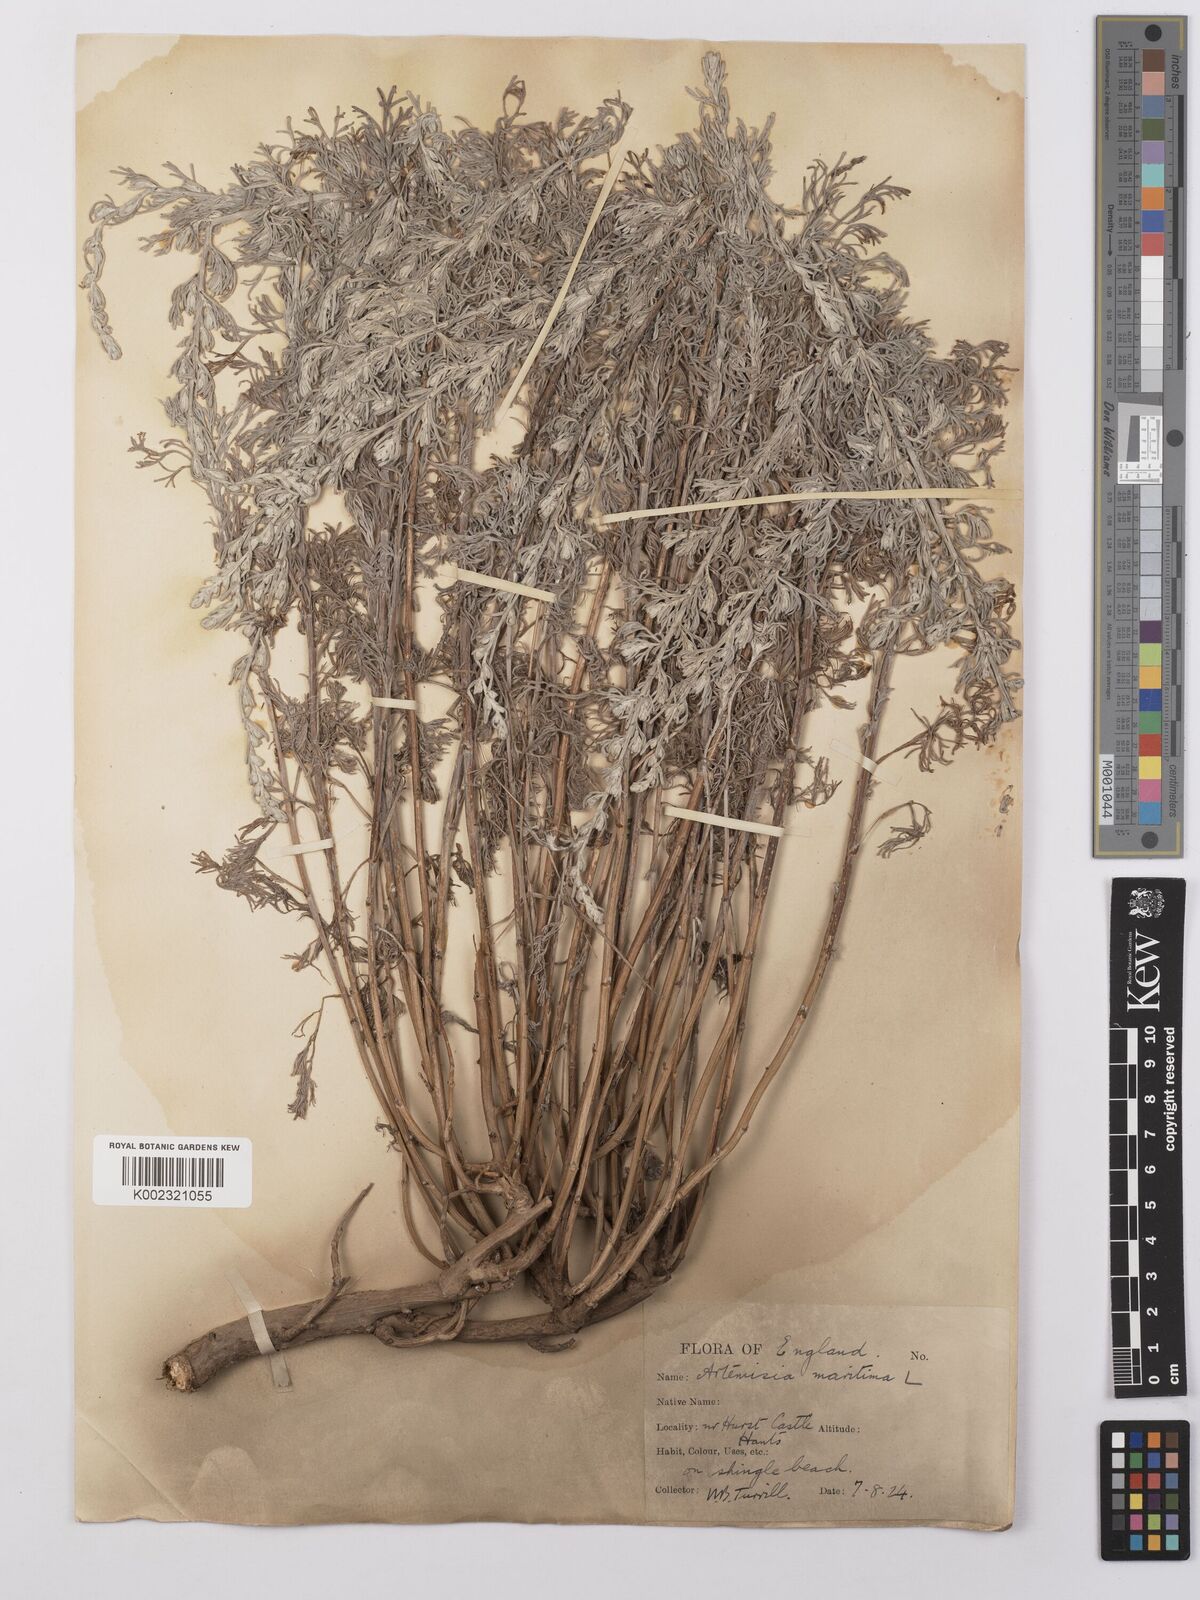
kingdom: Plantae
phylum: Tracheophyta
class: Magnoliopsida
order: Asterales
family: Asteraceae
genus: Artemisia
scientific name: Artemisia maritima
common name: Wormseed
